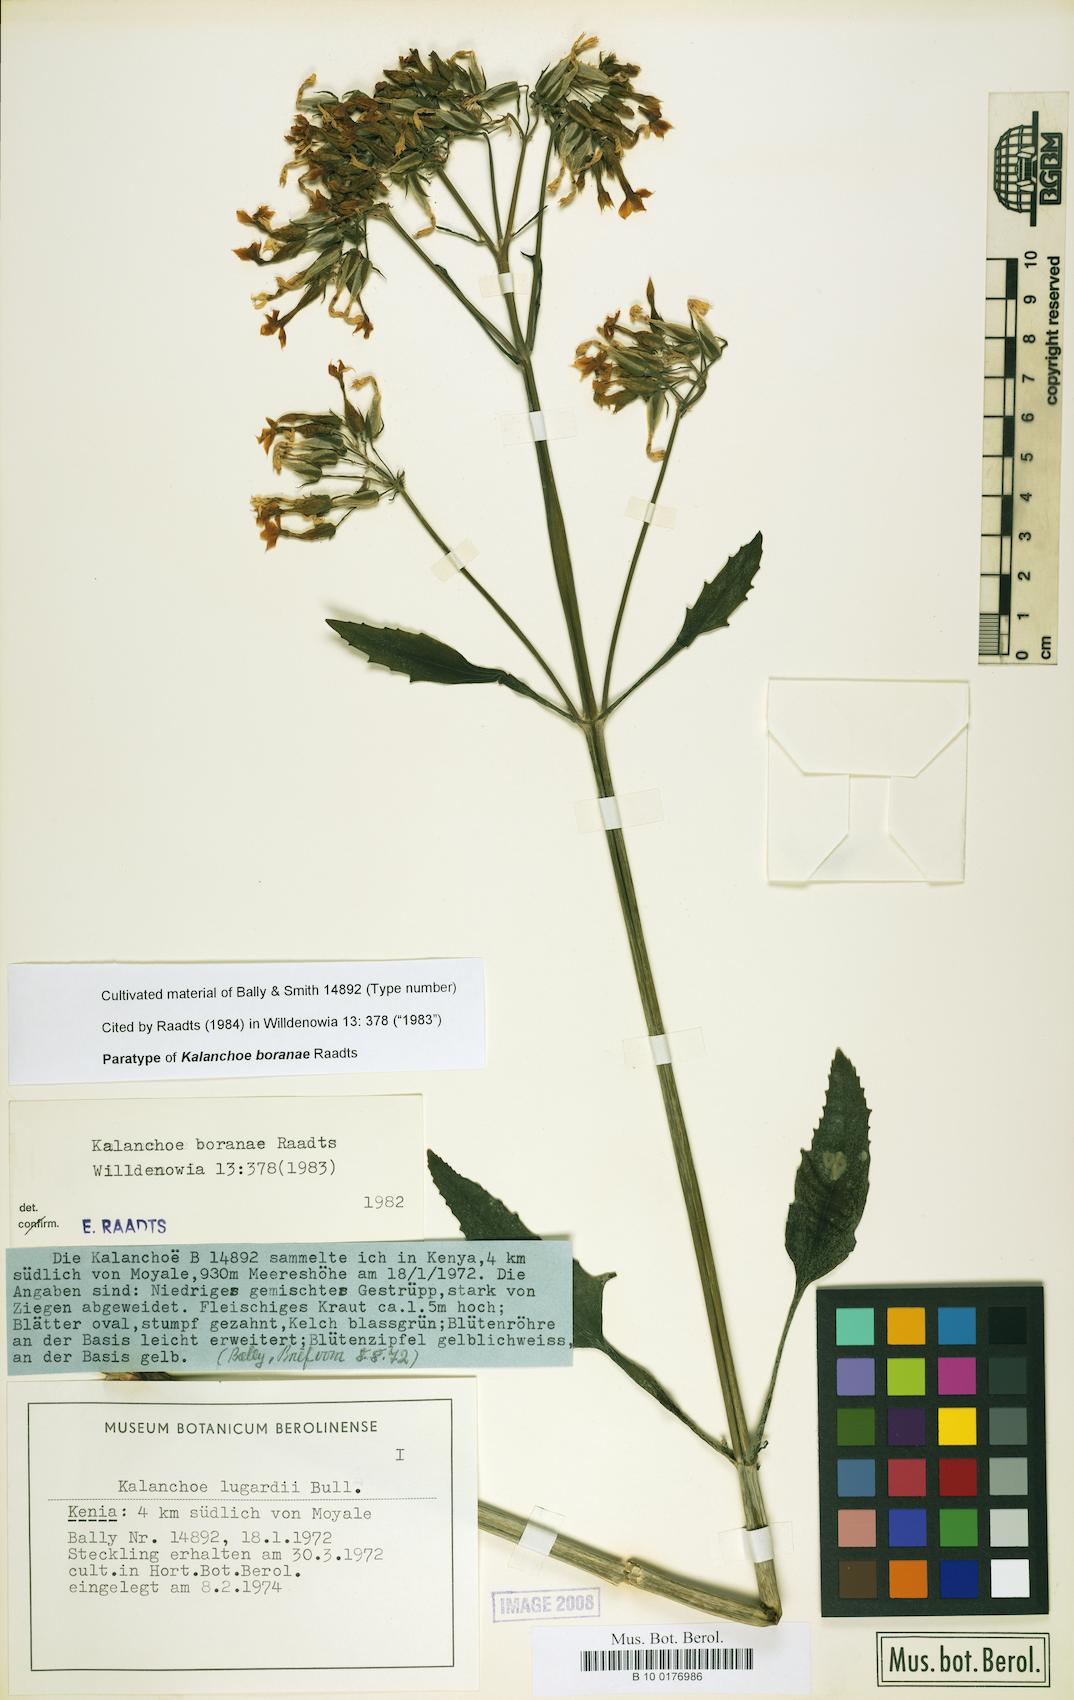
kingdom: Plantae
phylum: Tracheophyta
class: Magnoliopsida
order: Saxifragales
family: Crassulaceae
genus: Kalanchoe
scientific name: Kalanchoe boranae
